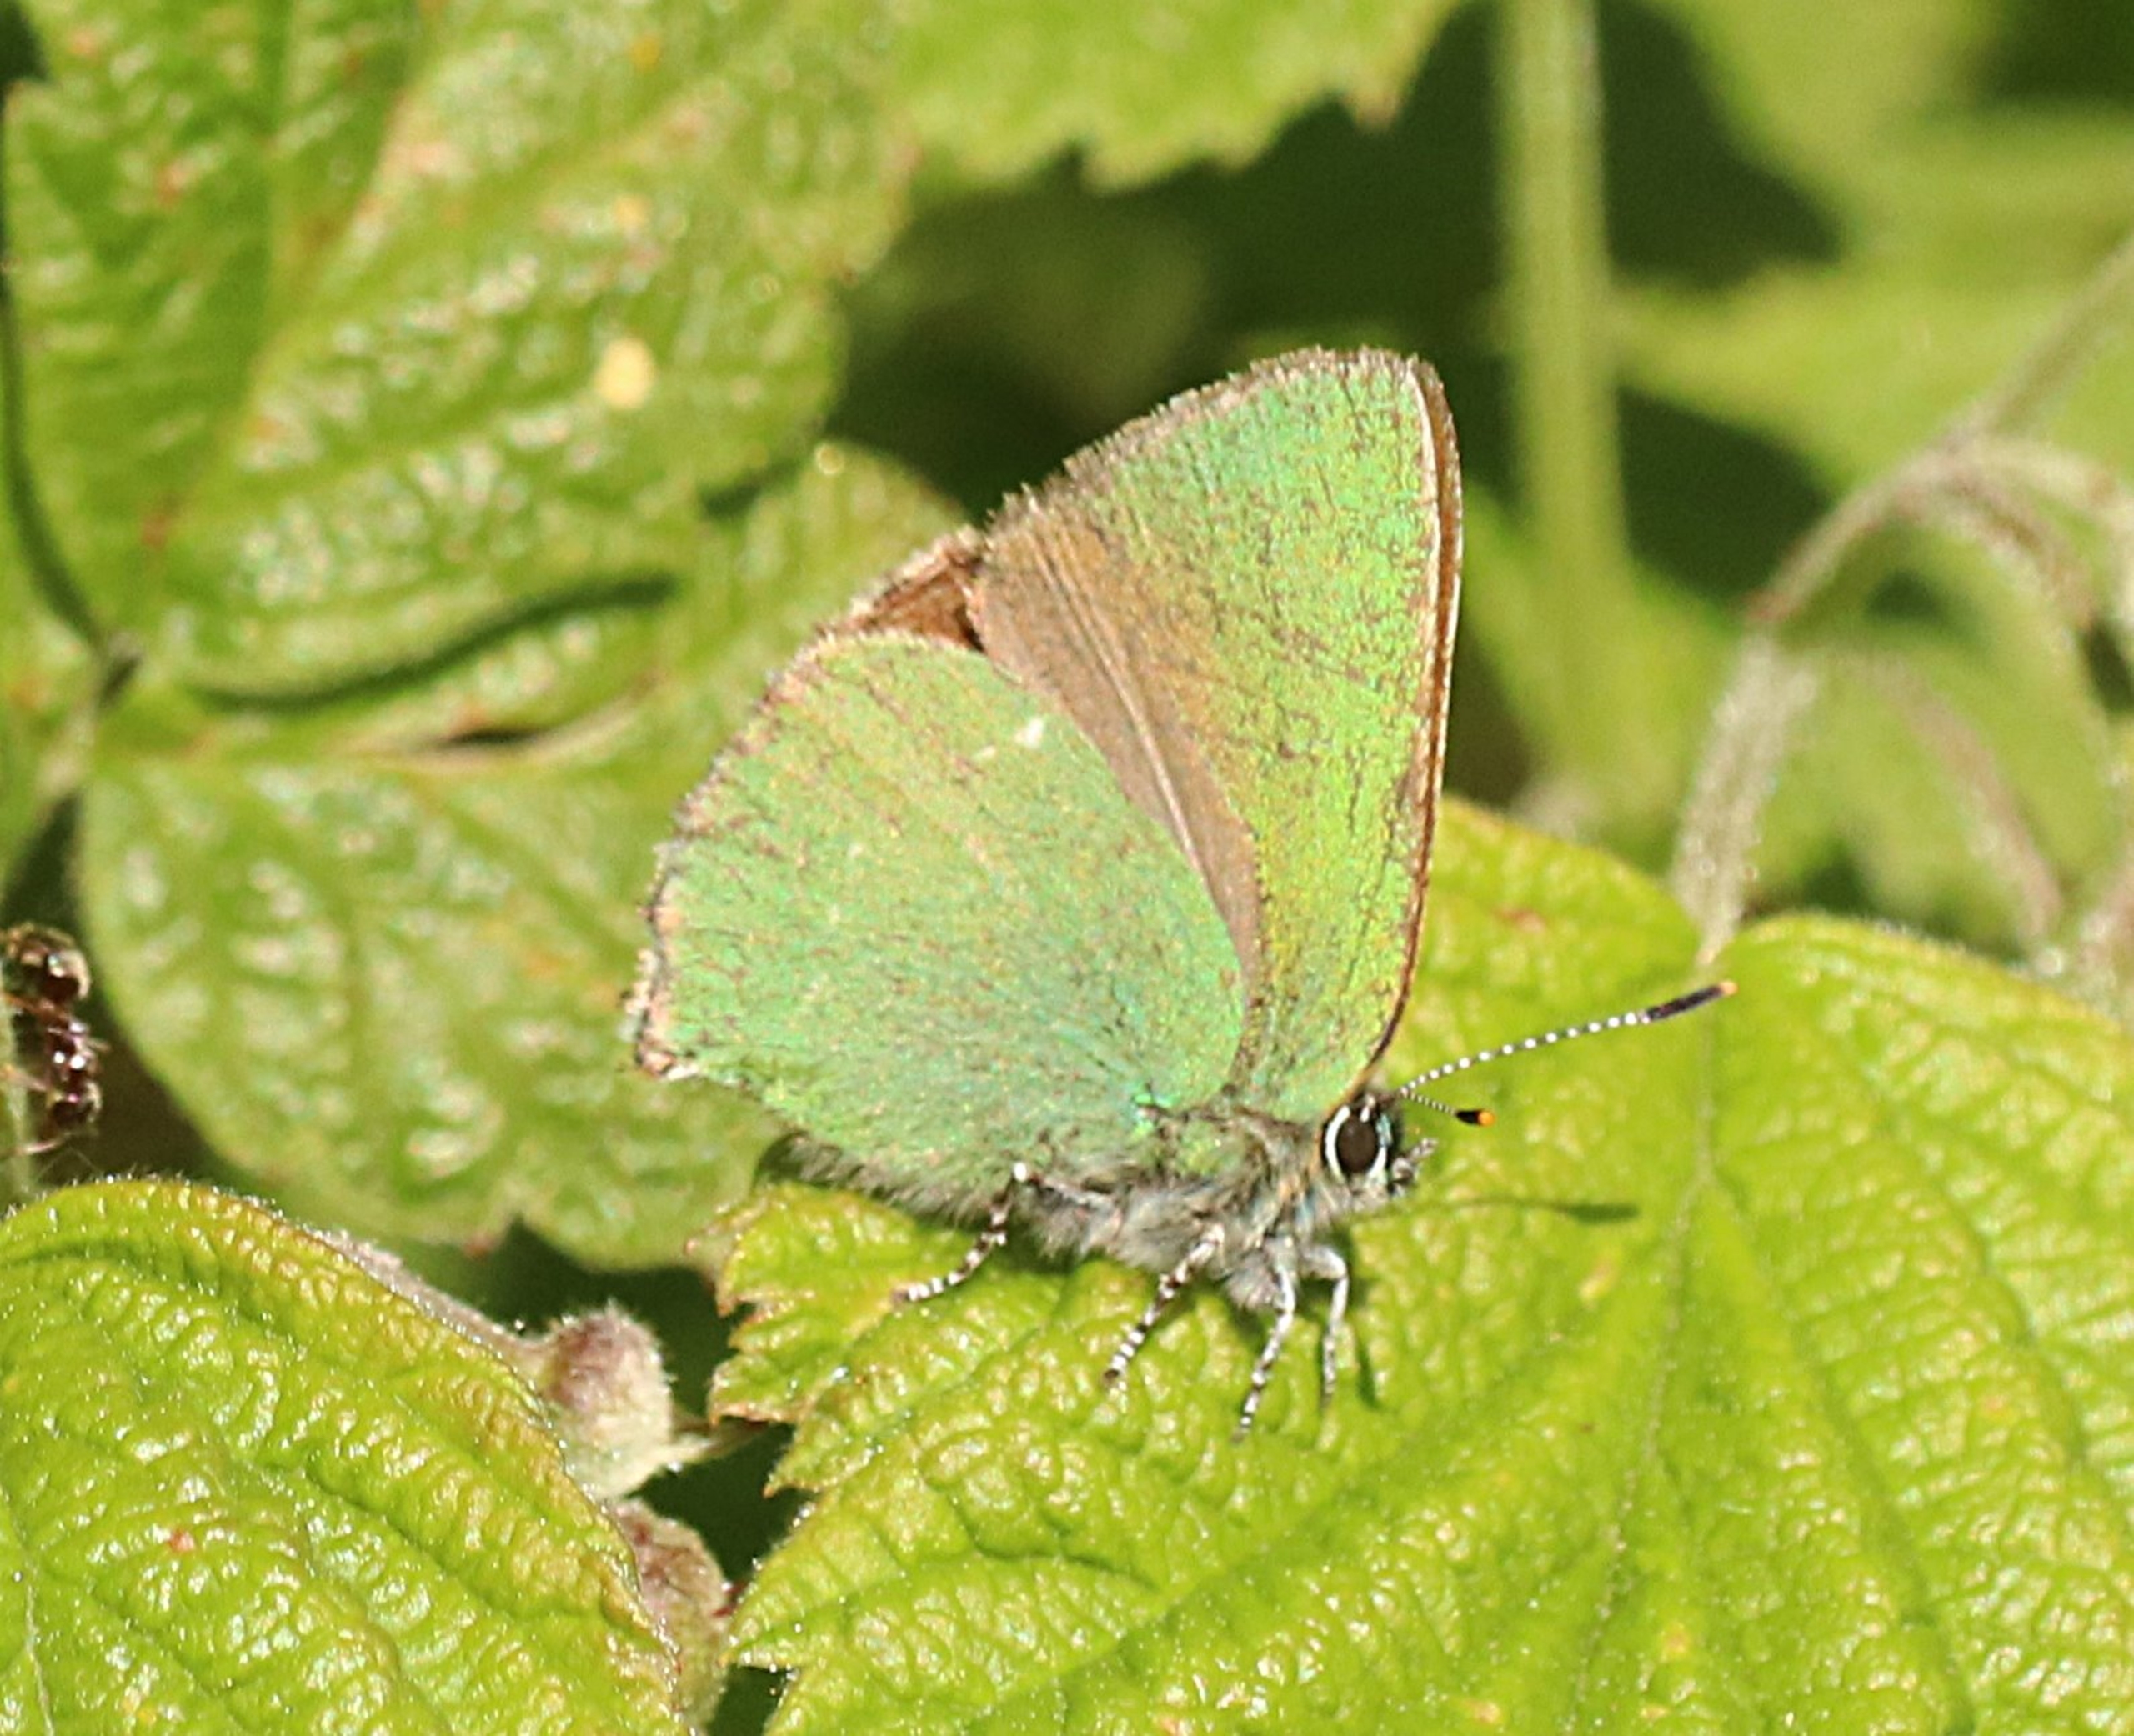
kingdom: Animalia
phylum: Arthropoda
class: Insecta
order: Lepidoptera
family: Lycaenidae
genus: Callophrys
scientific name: Callophrys rubi
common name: Grøn busksommerfugl
